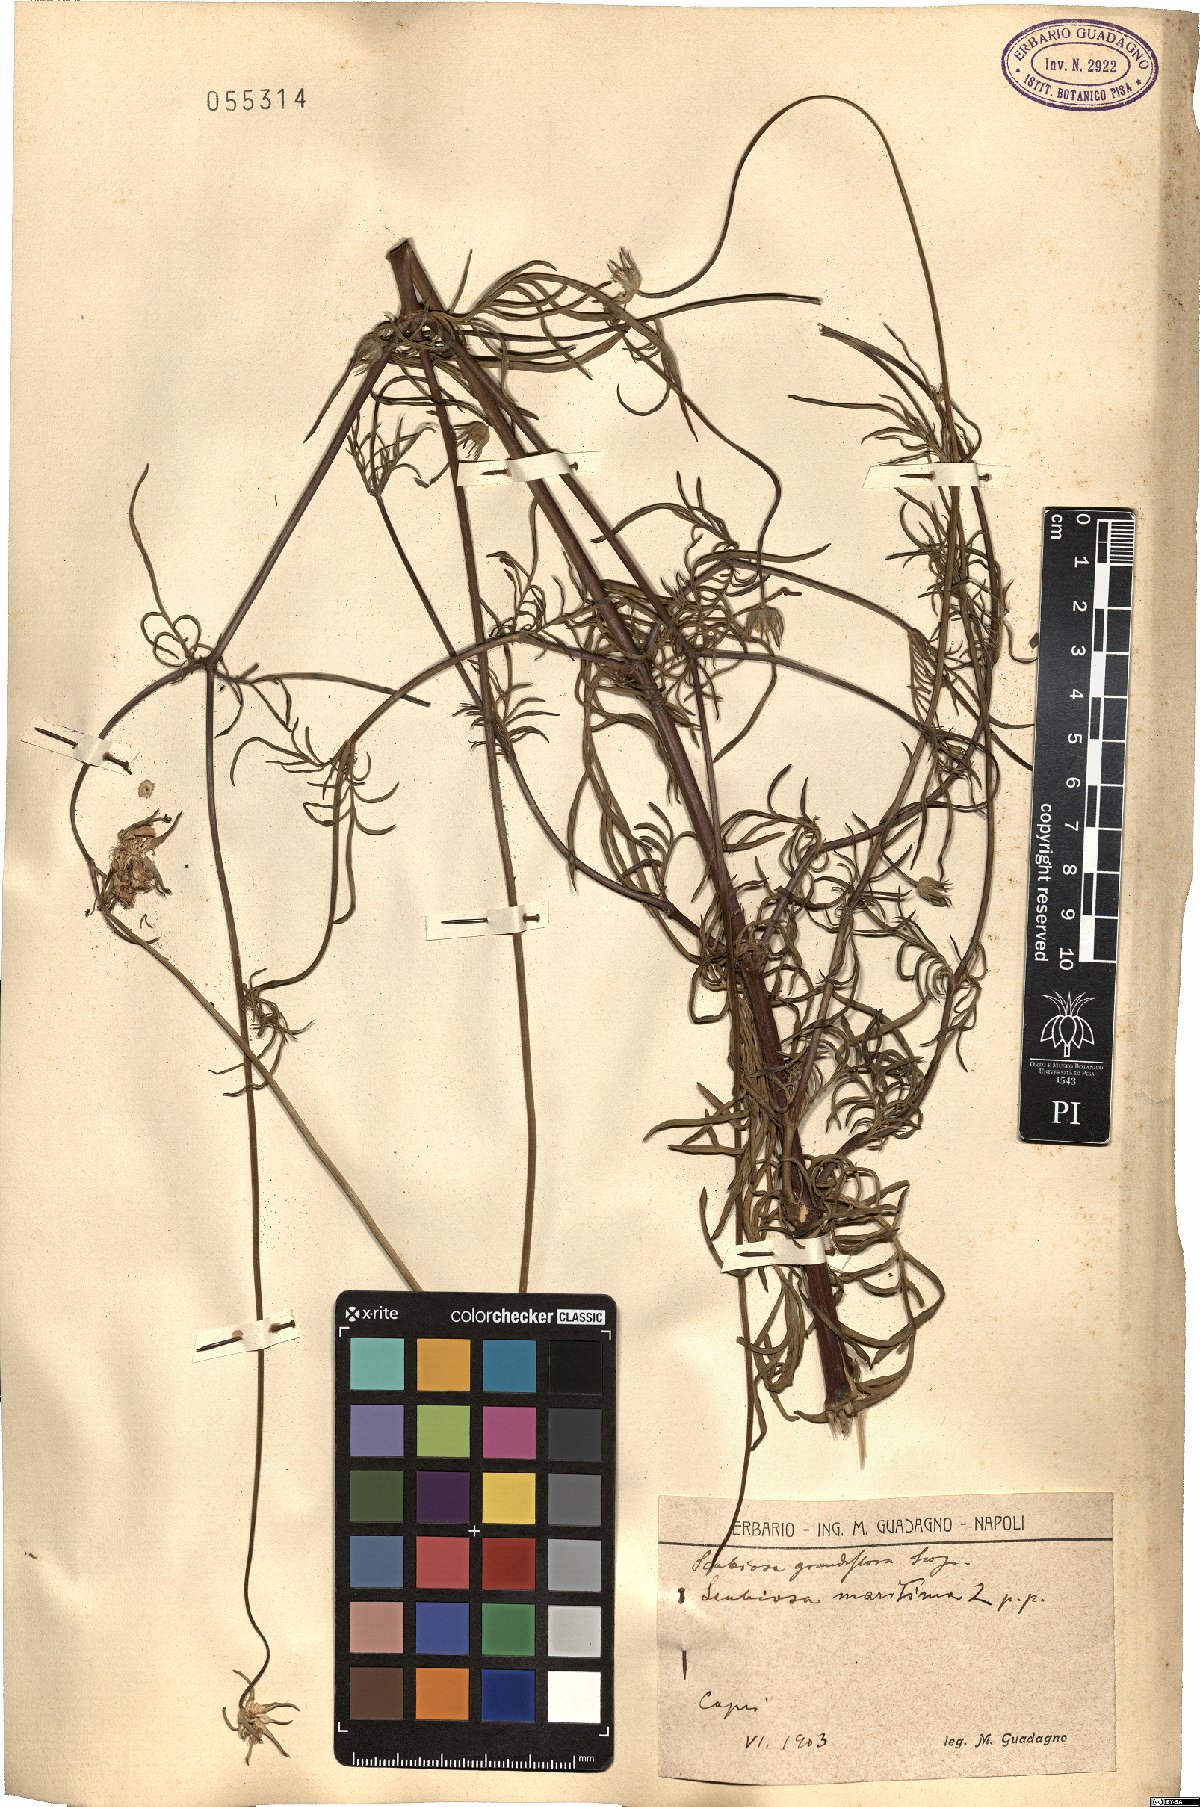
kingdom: Plantae
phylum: Tracheophyta
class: Magnoliopsida
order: Dipsacales
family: Caprifoliaceae
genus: Sixalix
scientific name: Sixalix atropurpurea
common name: Sweet scabious
